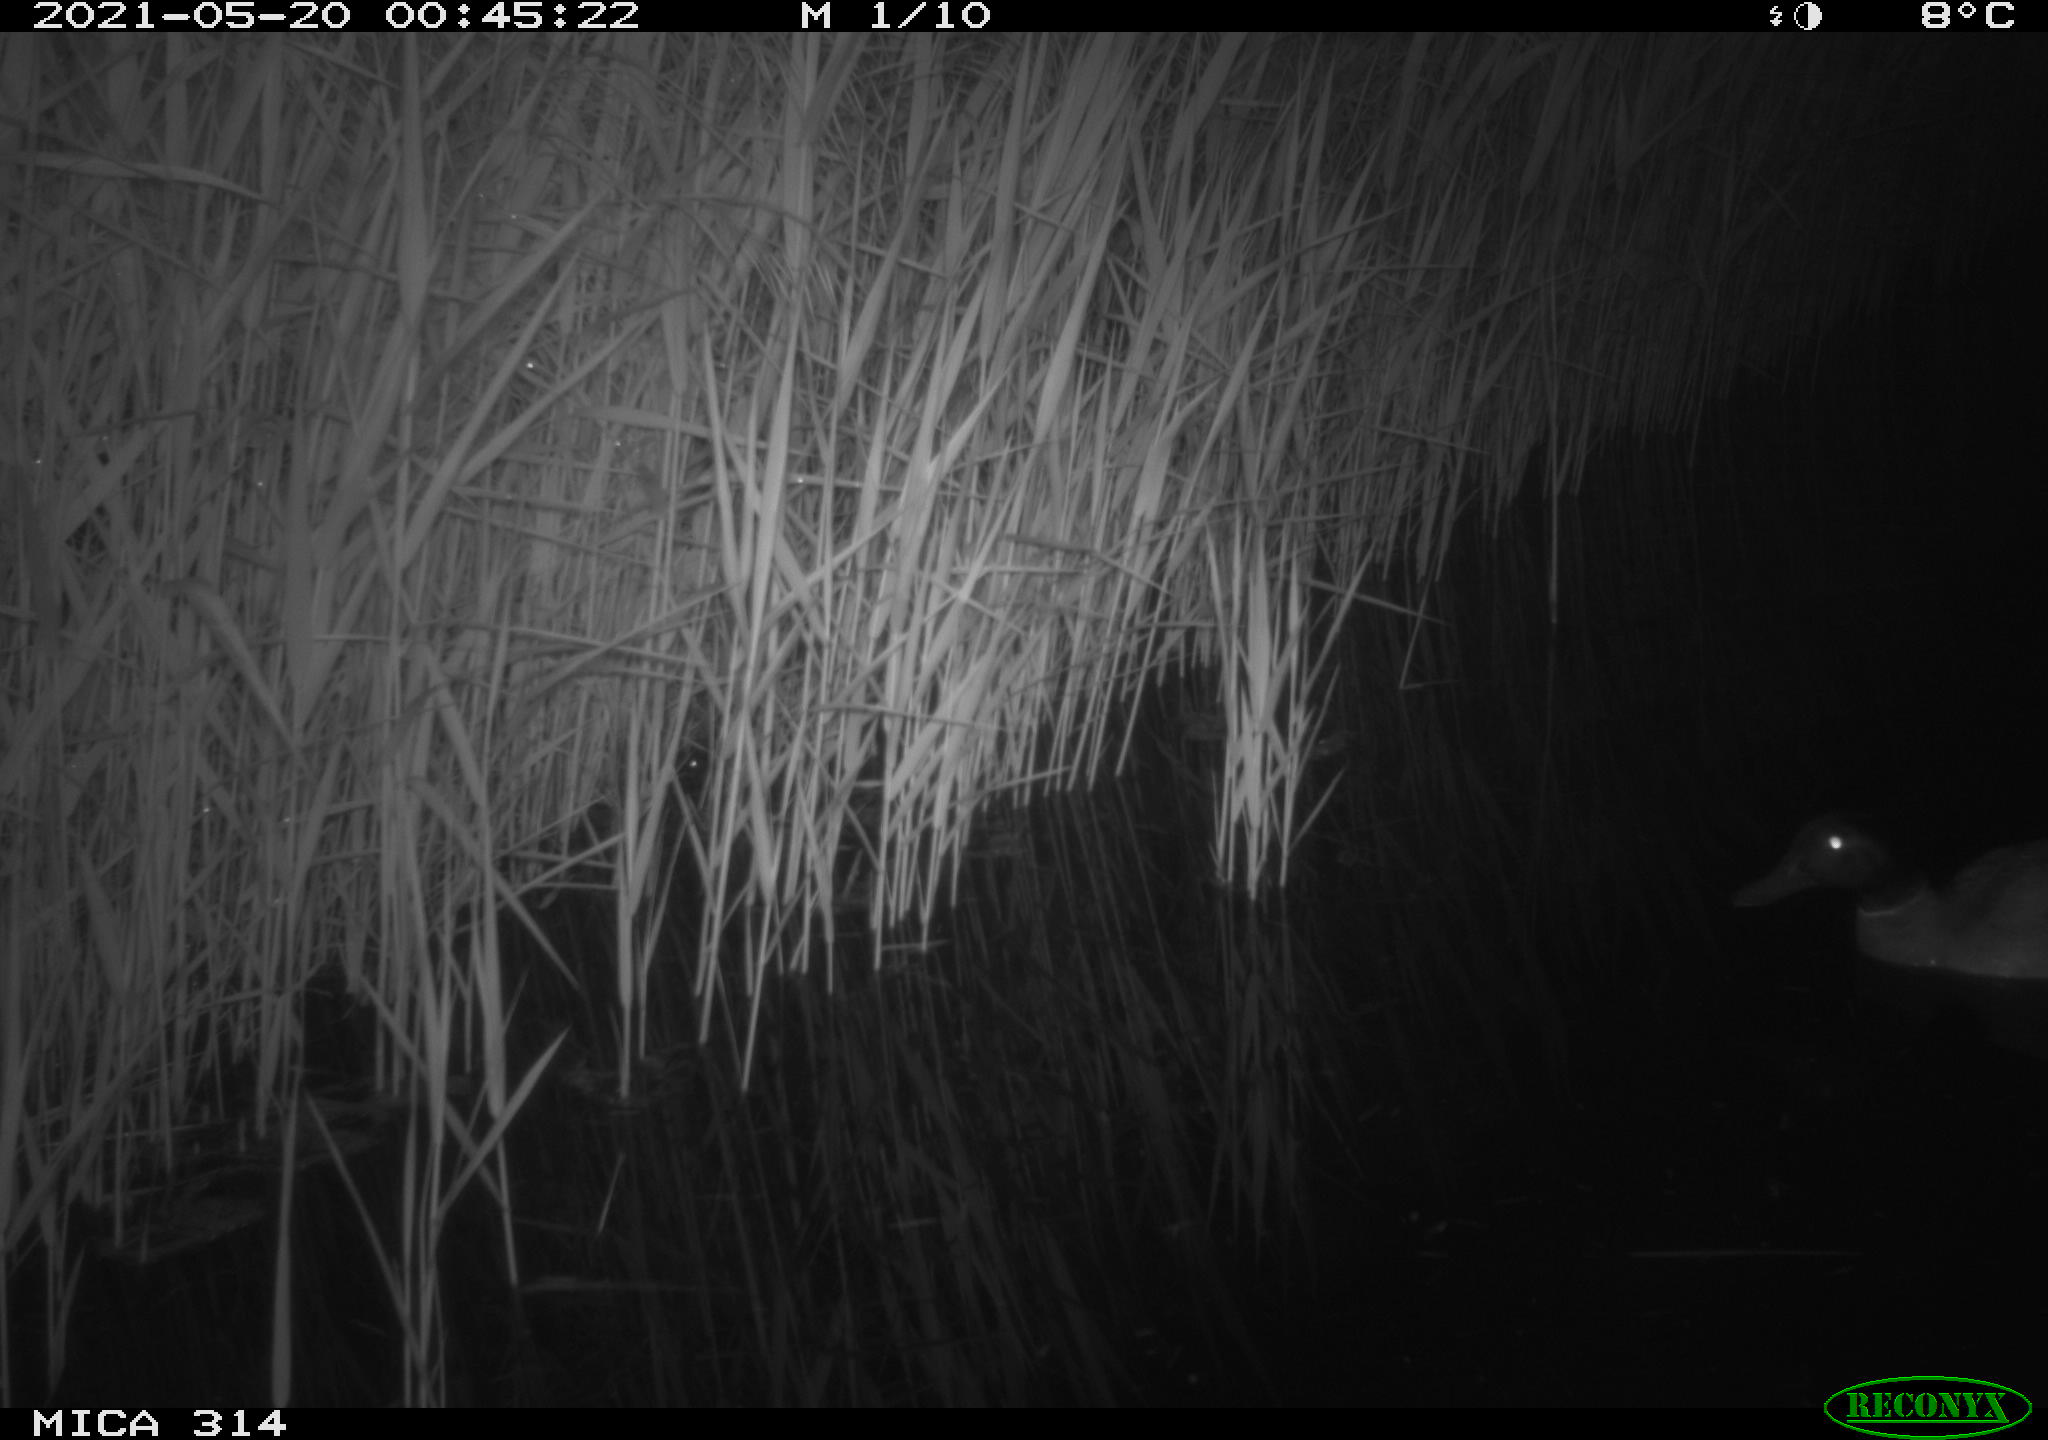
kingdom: Animalia
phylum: Chordata
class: Aves
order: Anseriformes
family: Anatidae
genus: Anas
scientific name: Anas platyrhynchos
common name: Mallard
